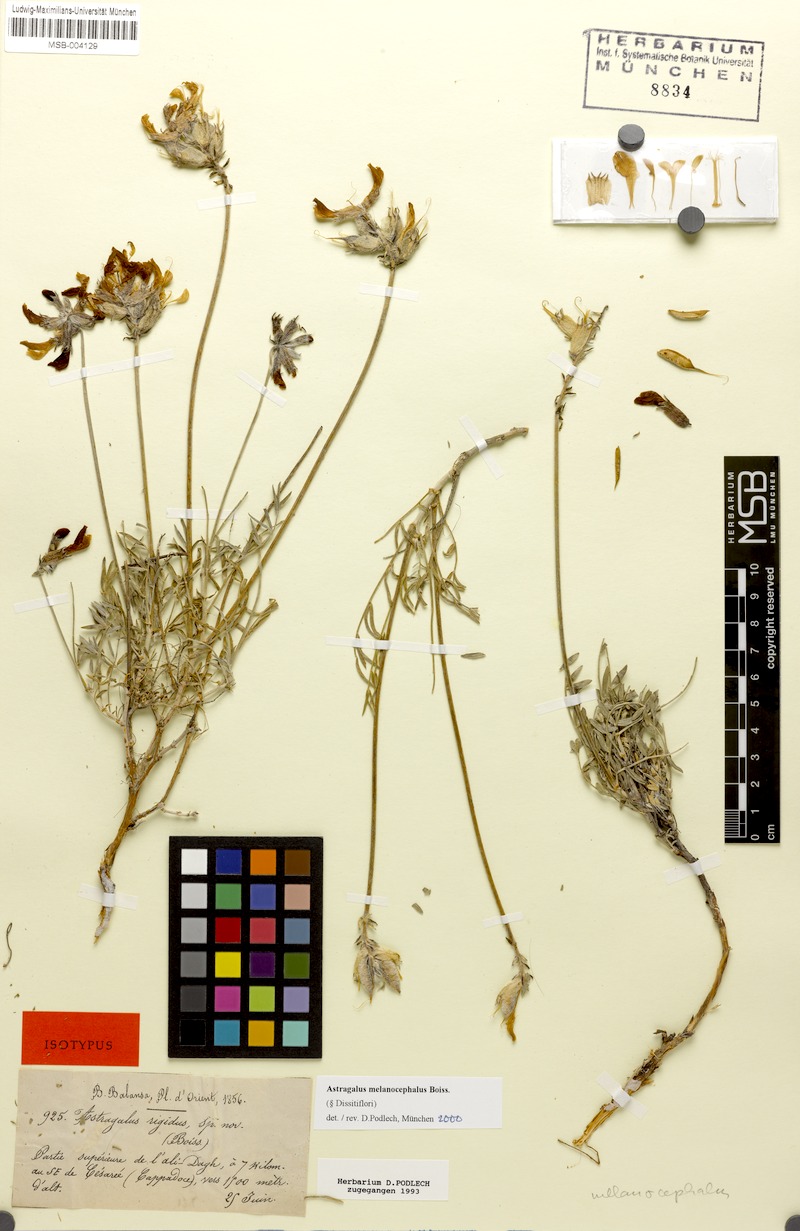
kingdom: Plantae
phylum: Tracheophyta
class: Magnoliopsida
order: Fabales
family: Fabaceae
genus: Astragalus
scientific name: Astragalus melanocephalus
